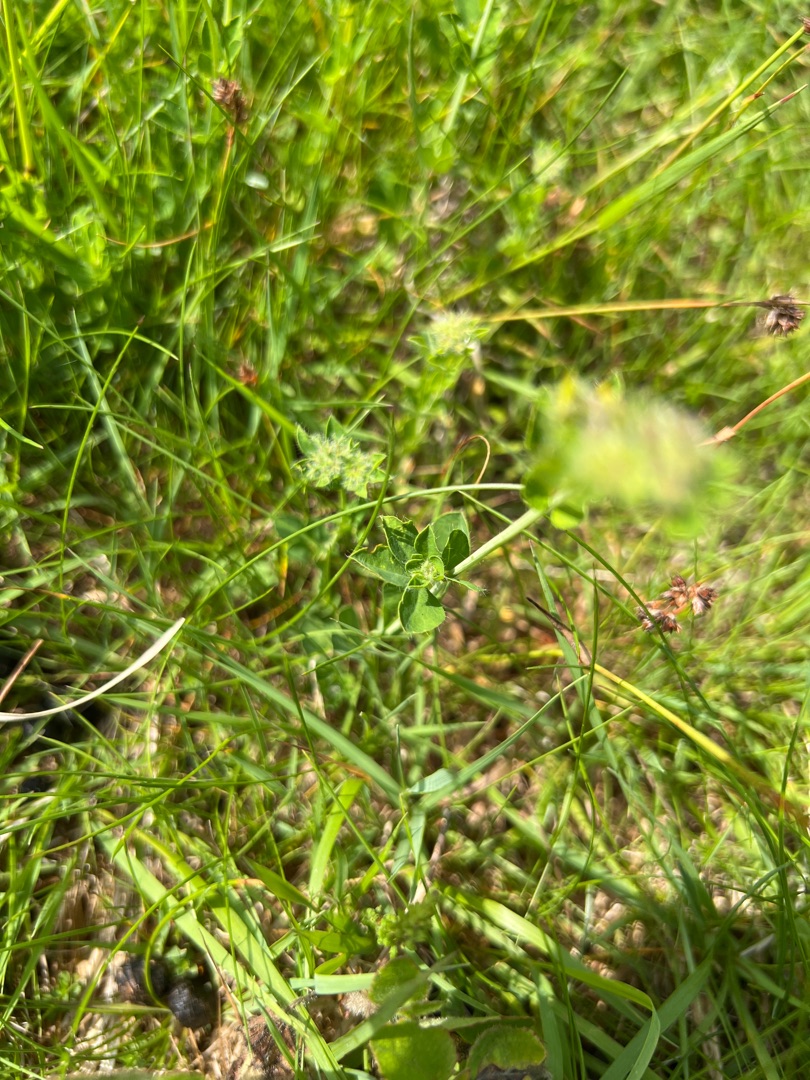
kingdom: Plantae
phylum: Tracheophyta
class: Magnoliopsida
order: Fabales
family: Fabaceae
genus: Lotus
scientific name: Lotus corniculatus
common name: Almindelig kællingetand
